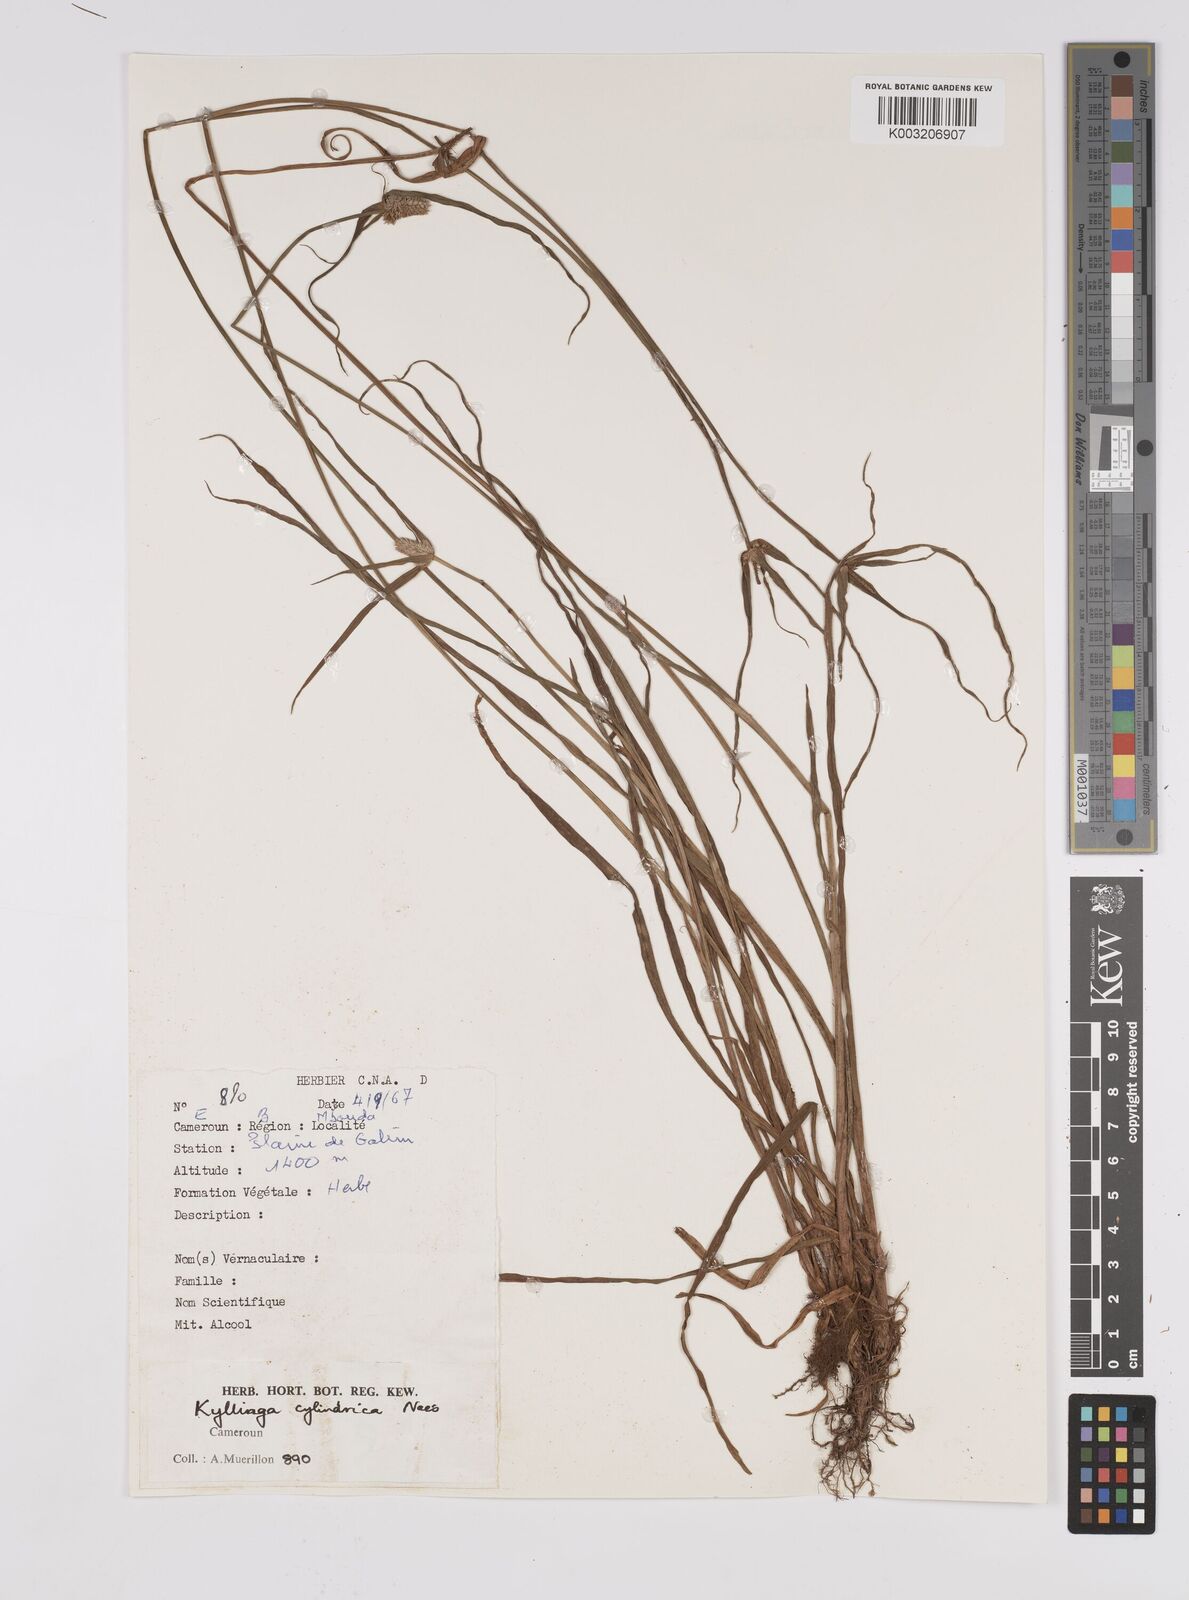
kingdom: Plantae
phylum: Tracheophyta
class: Liliopsida
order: Poales
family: Cyperaceae
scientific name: Cyperaceae
